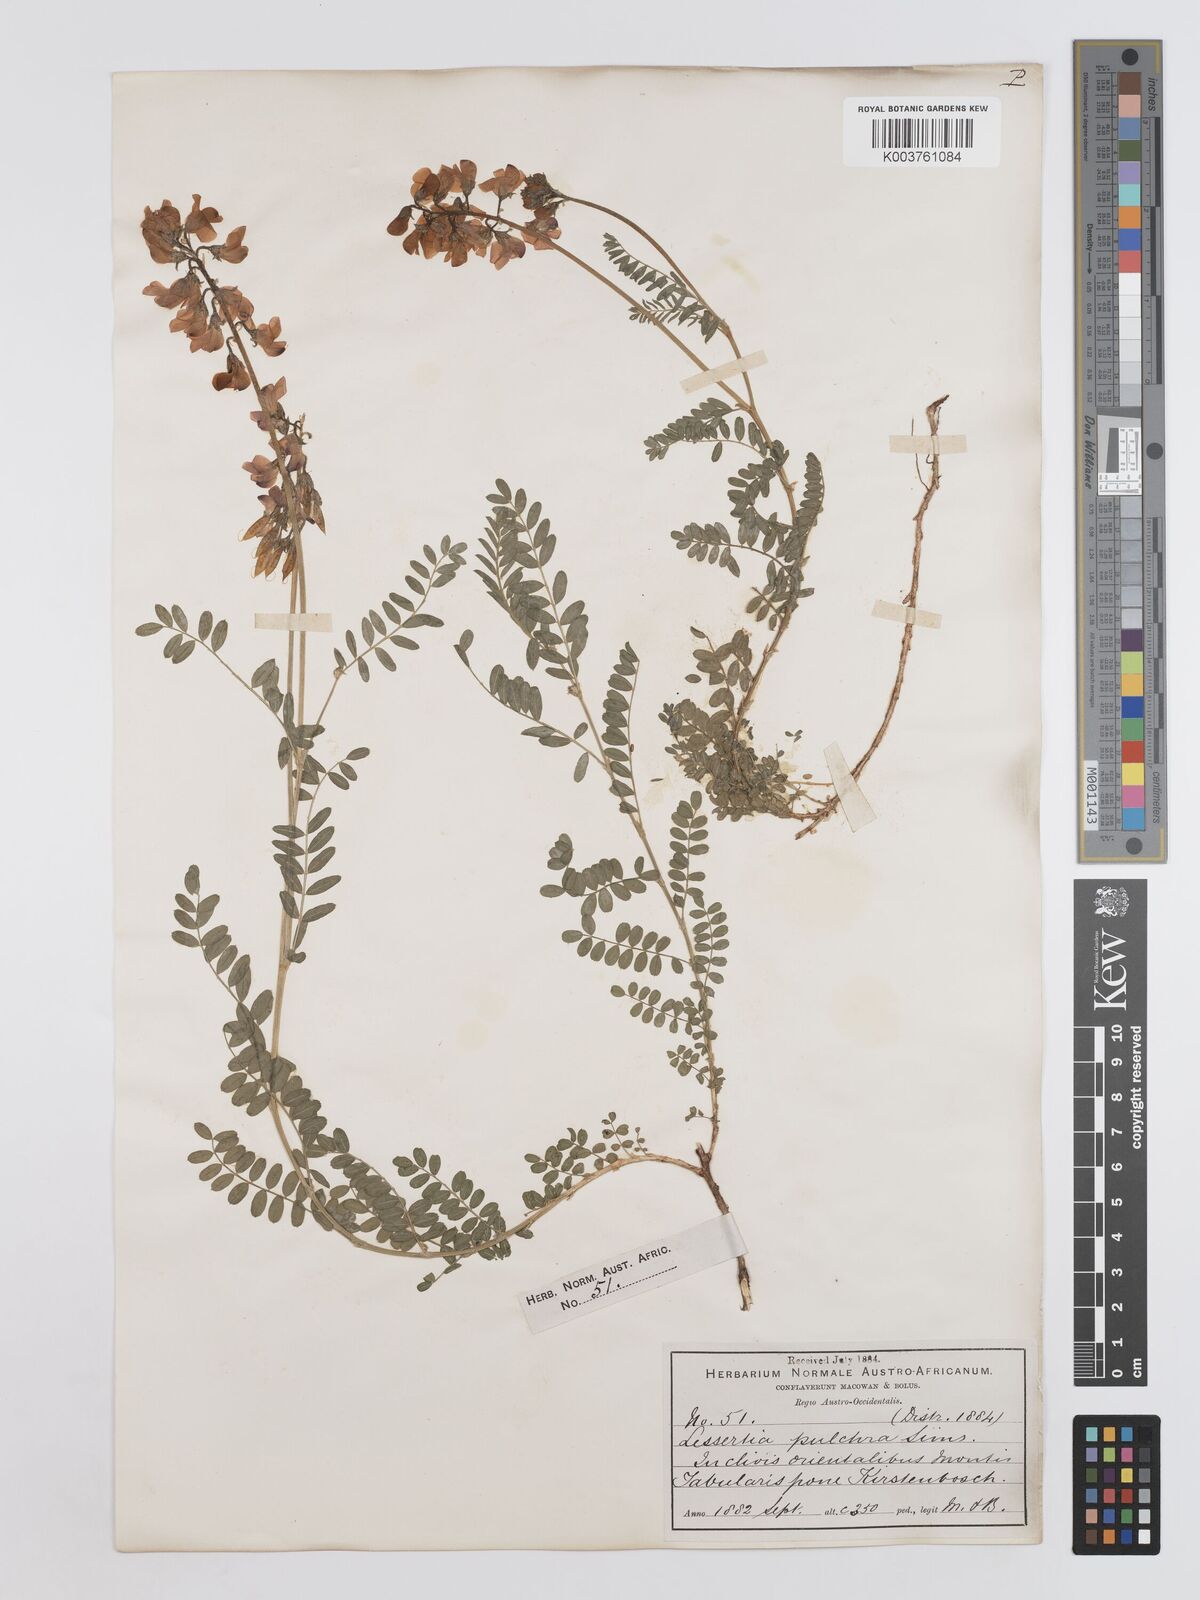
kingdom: Plantae
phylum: Tracheophyta
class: Magnoliopsida
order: Fabales
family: Fabaceae
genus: Lessertia
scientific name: Lessertia capensis
